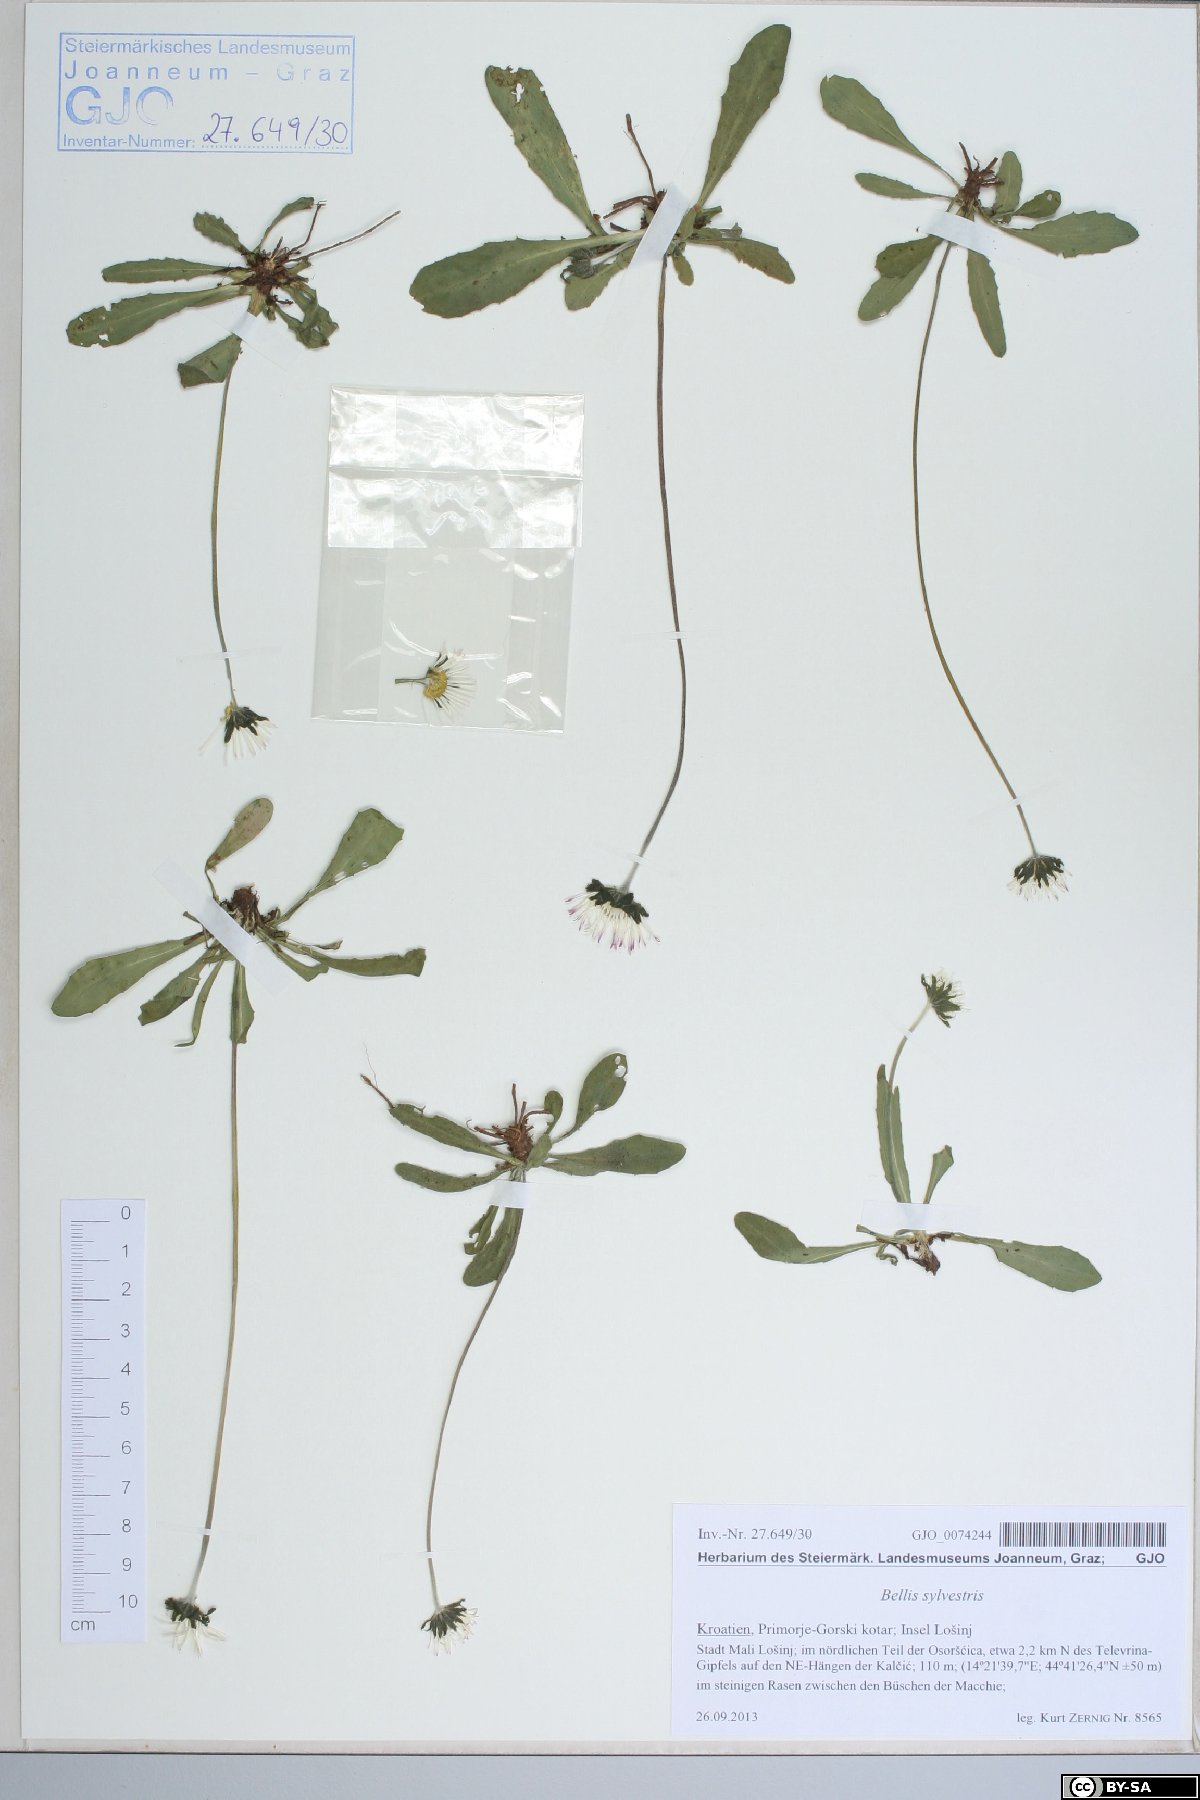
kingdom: Plantae
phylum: Tracheophyta
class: Magnoliopsida
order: Asterales
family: Asteraceae
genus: Bellis
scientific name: Bellis sylvestris
